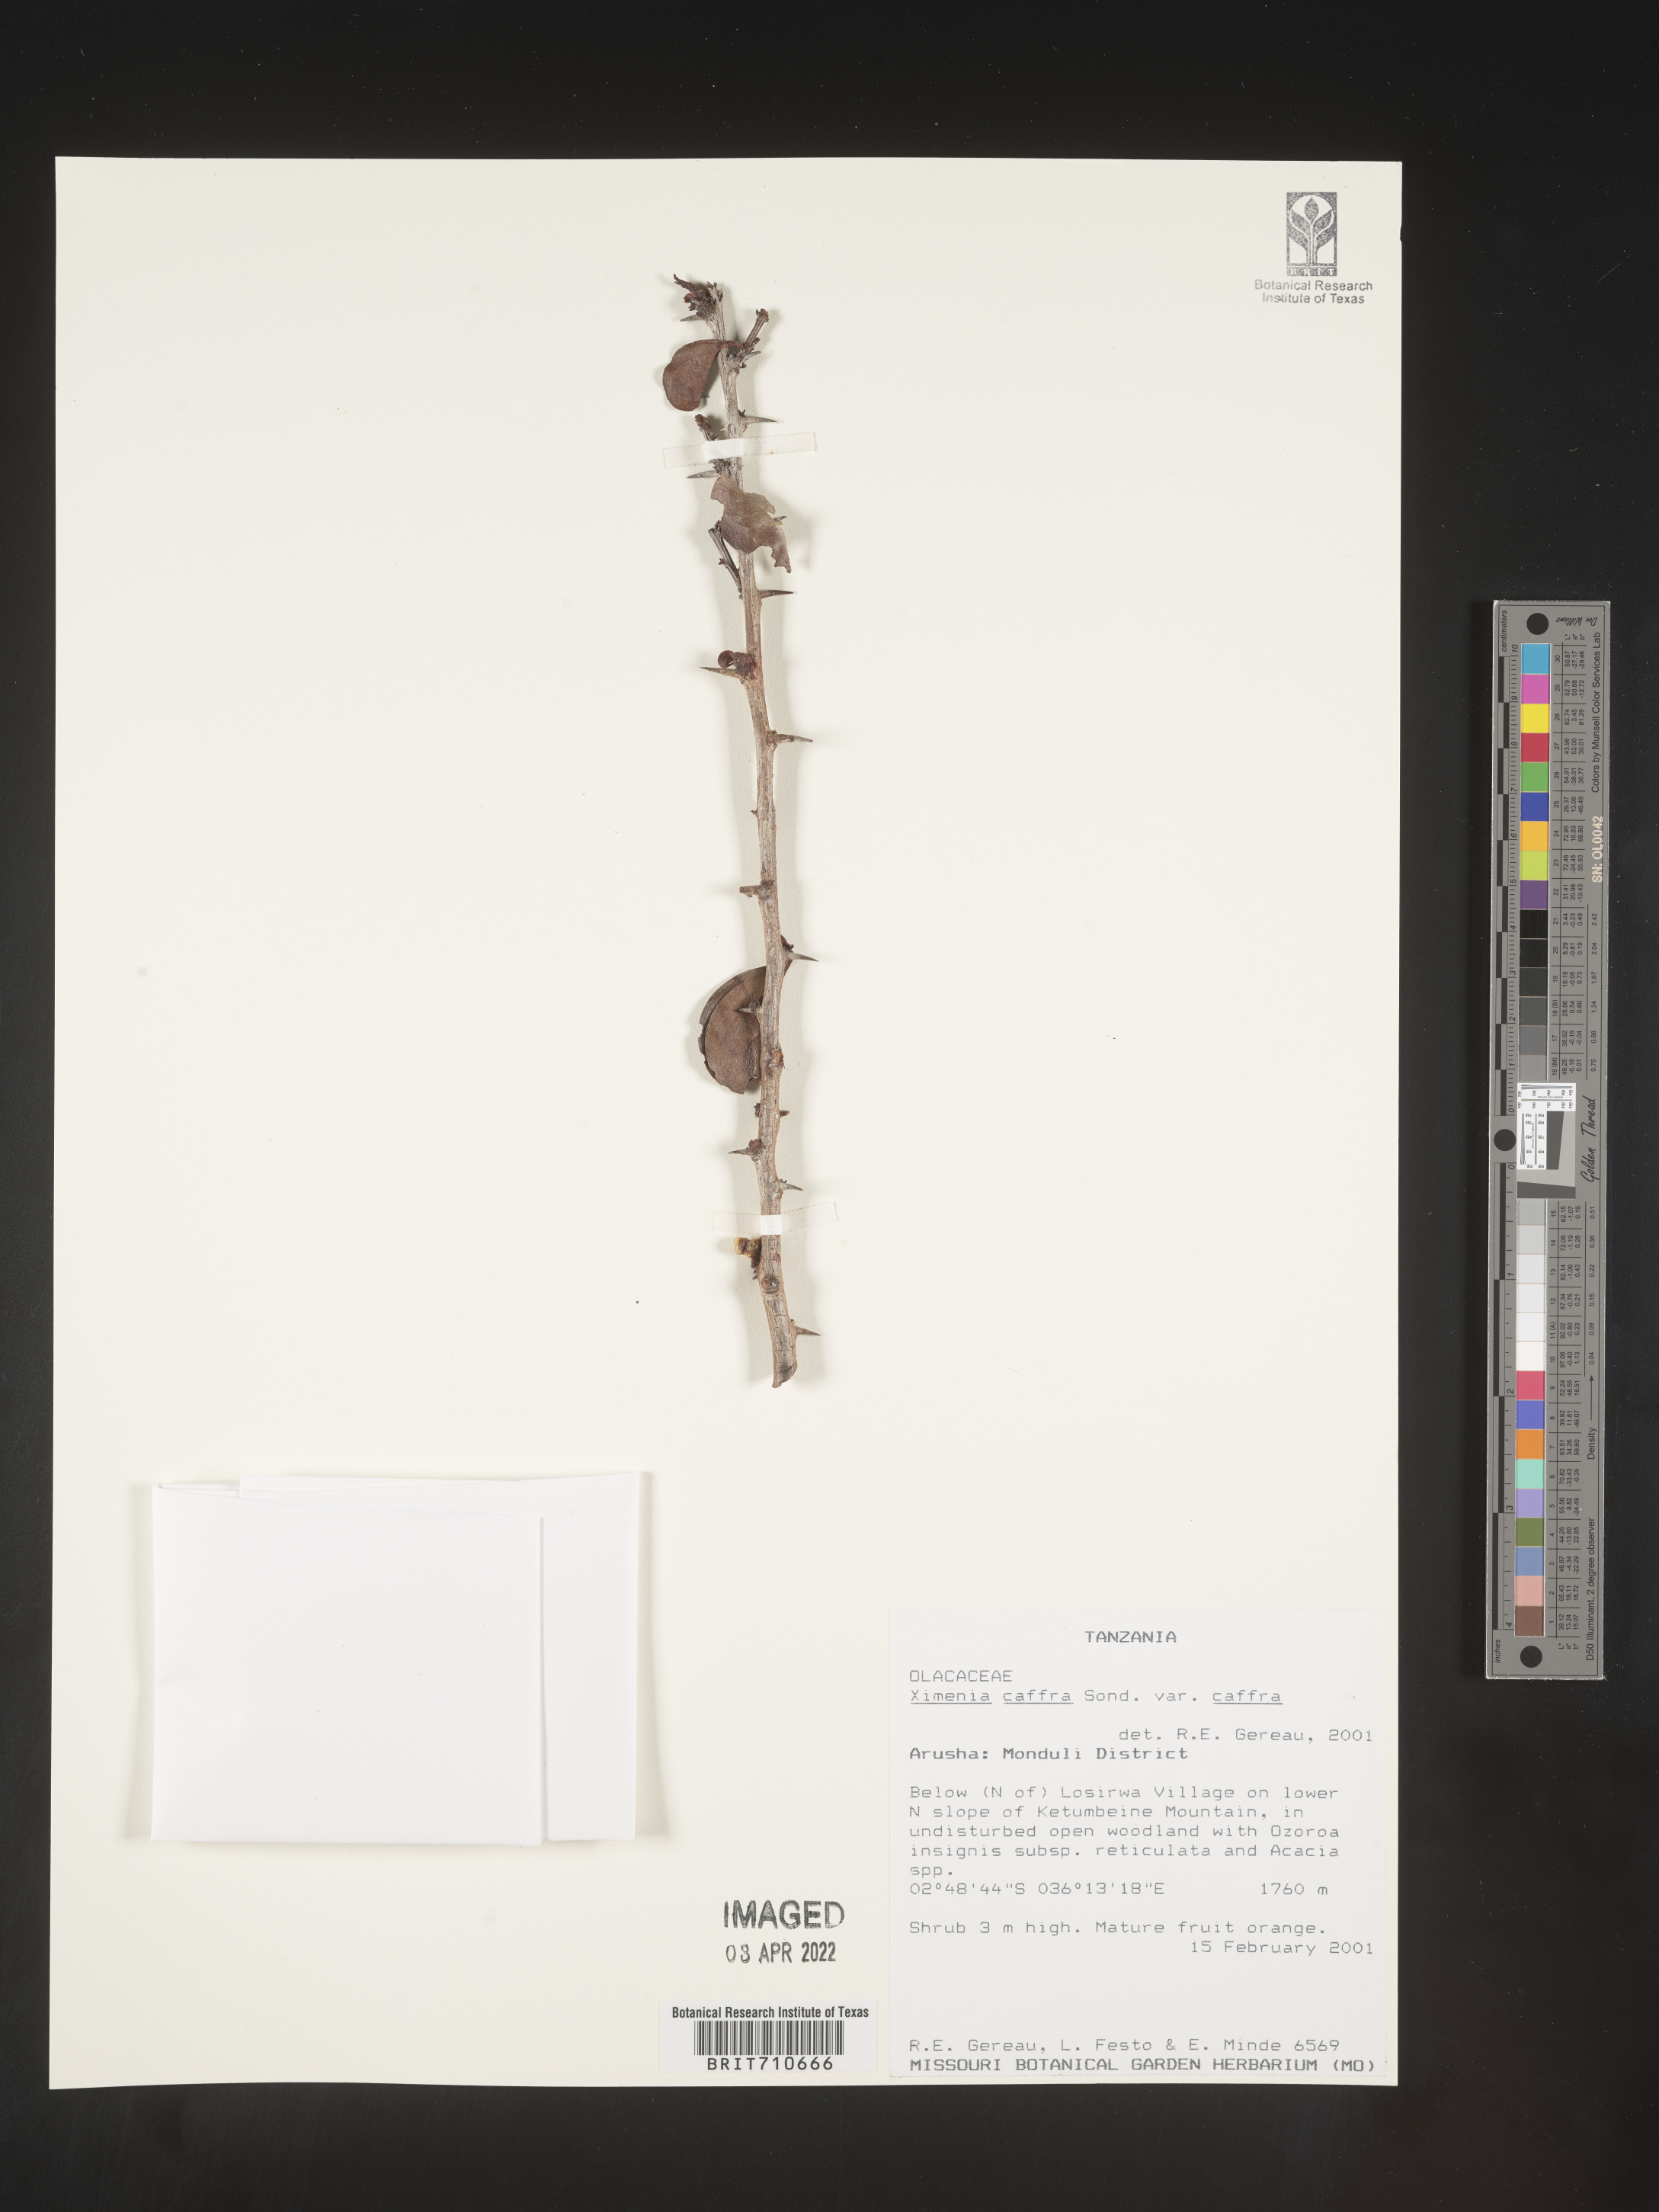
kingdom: Plantae
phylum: Tracheophyta
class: Magnoliopsida
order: Santalales
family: Ximeniaceae
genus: Ximenia
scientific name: Ximenia
